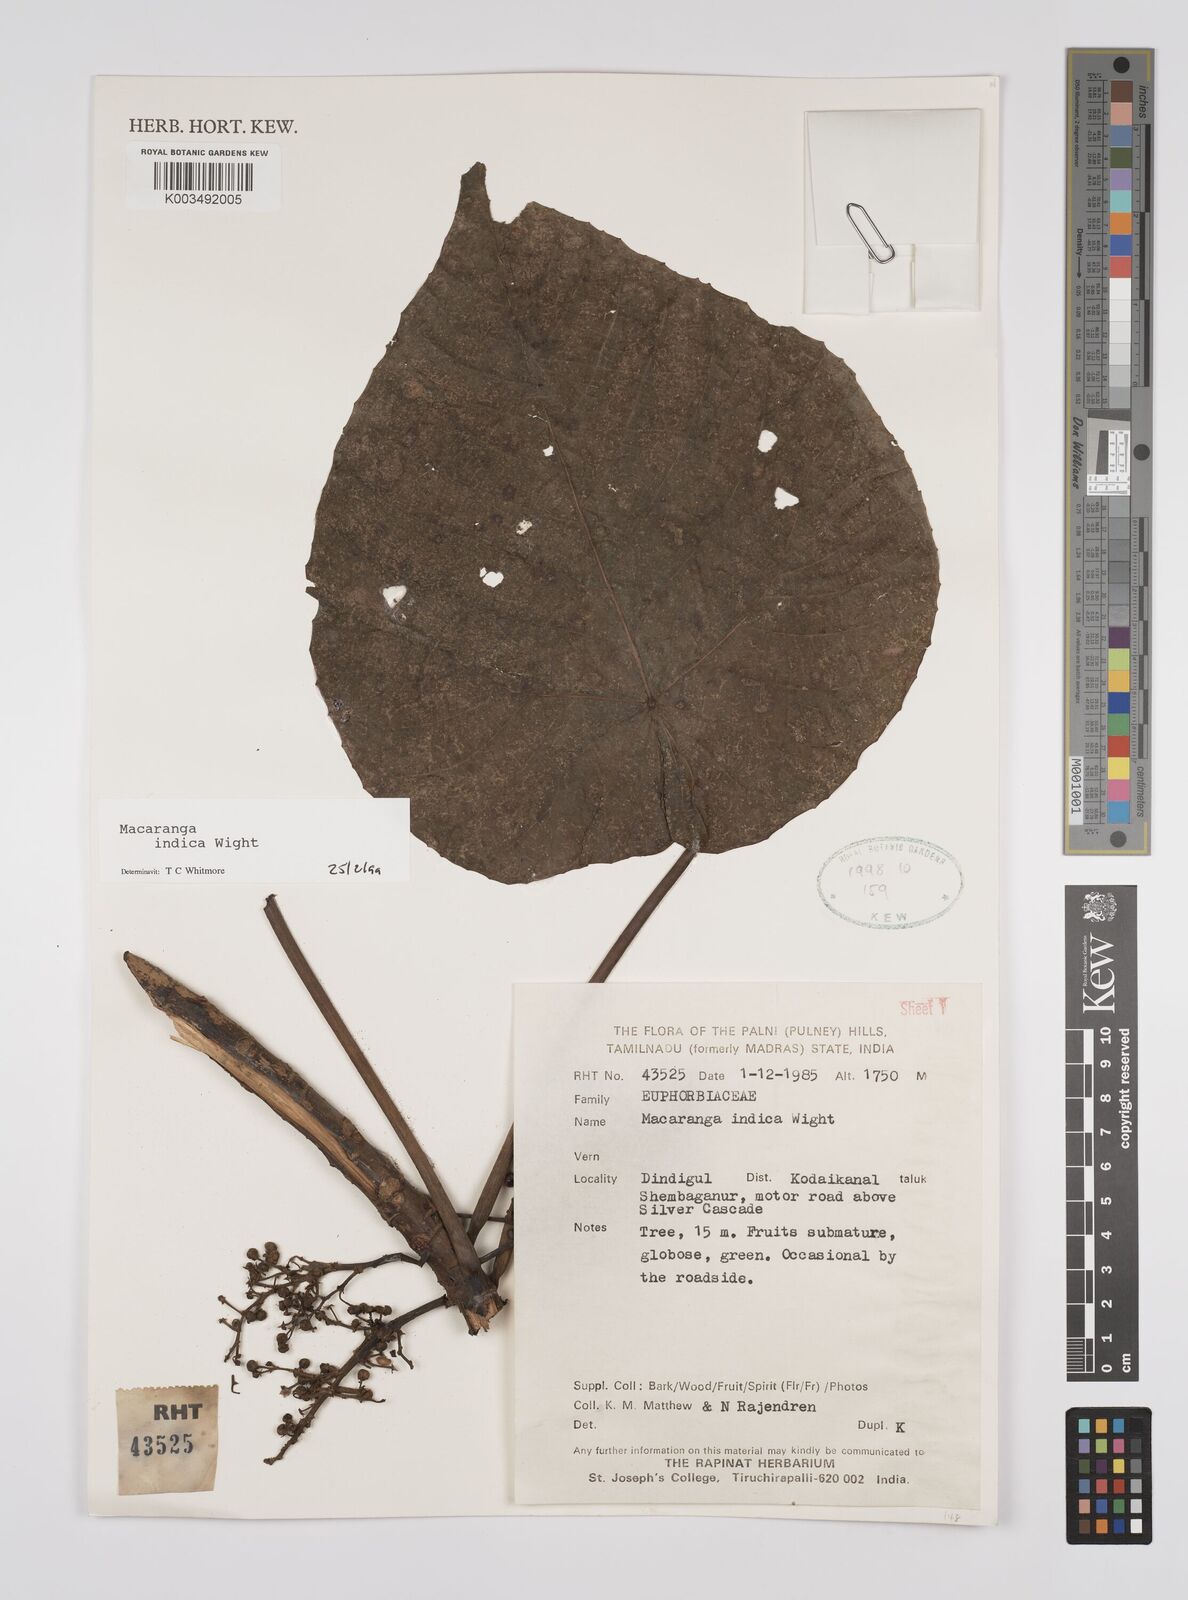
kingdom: Plantae
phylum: Tracheophyta
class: Magnoliopsida
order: Malpighiales
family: Euphorbiaceae
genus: Macaranga
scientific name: Macaranga indica
